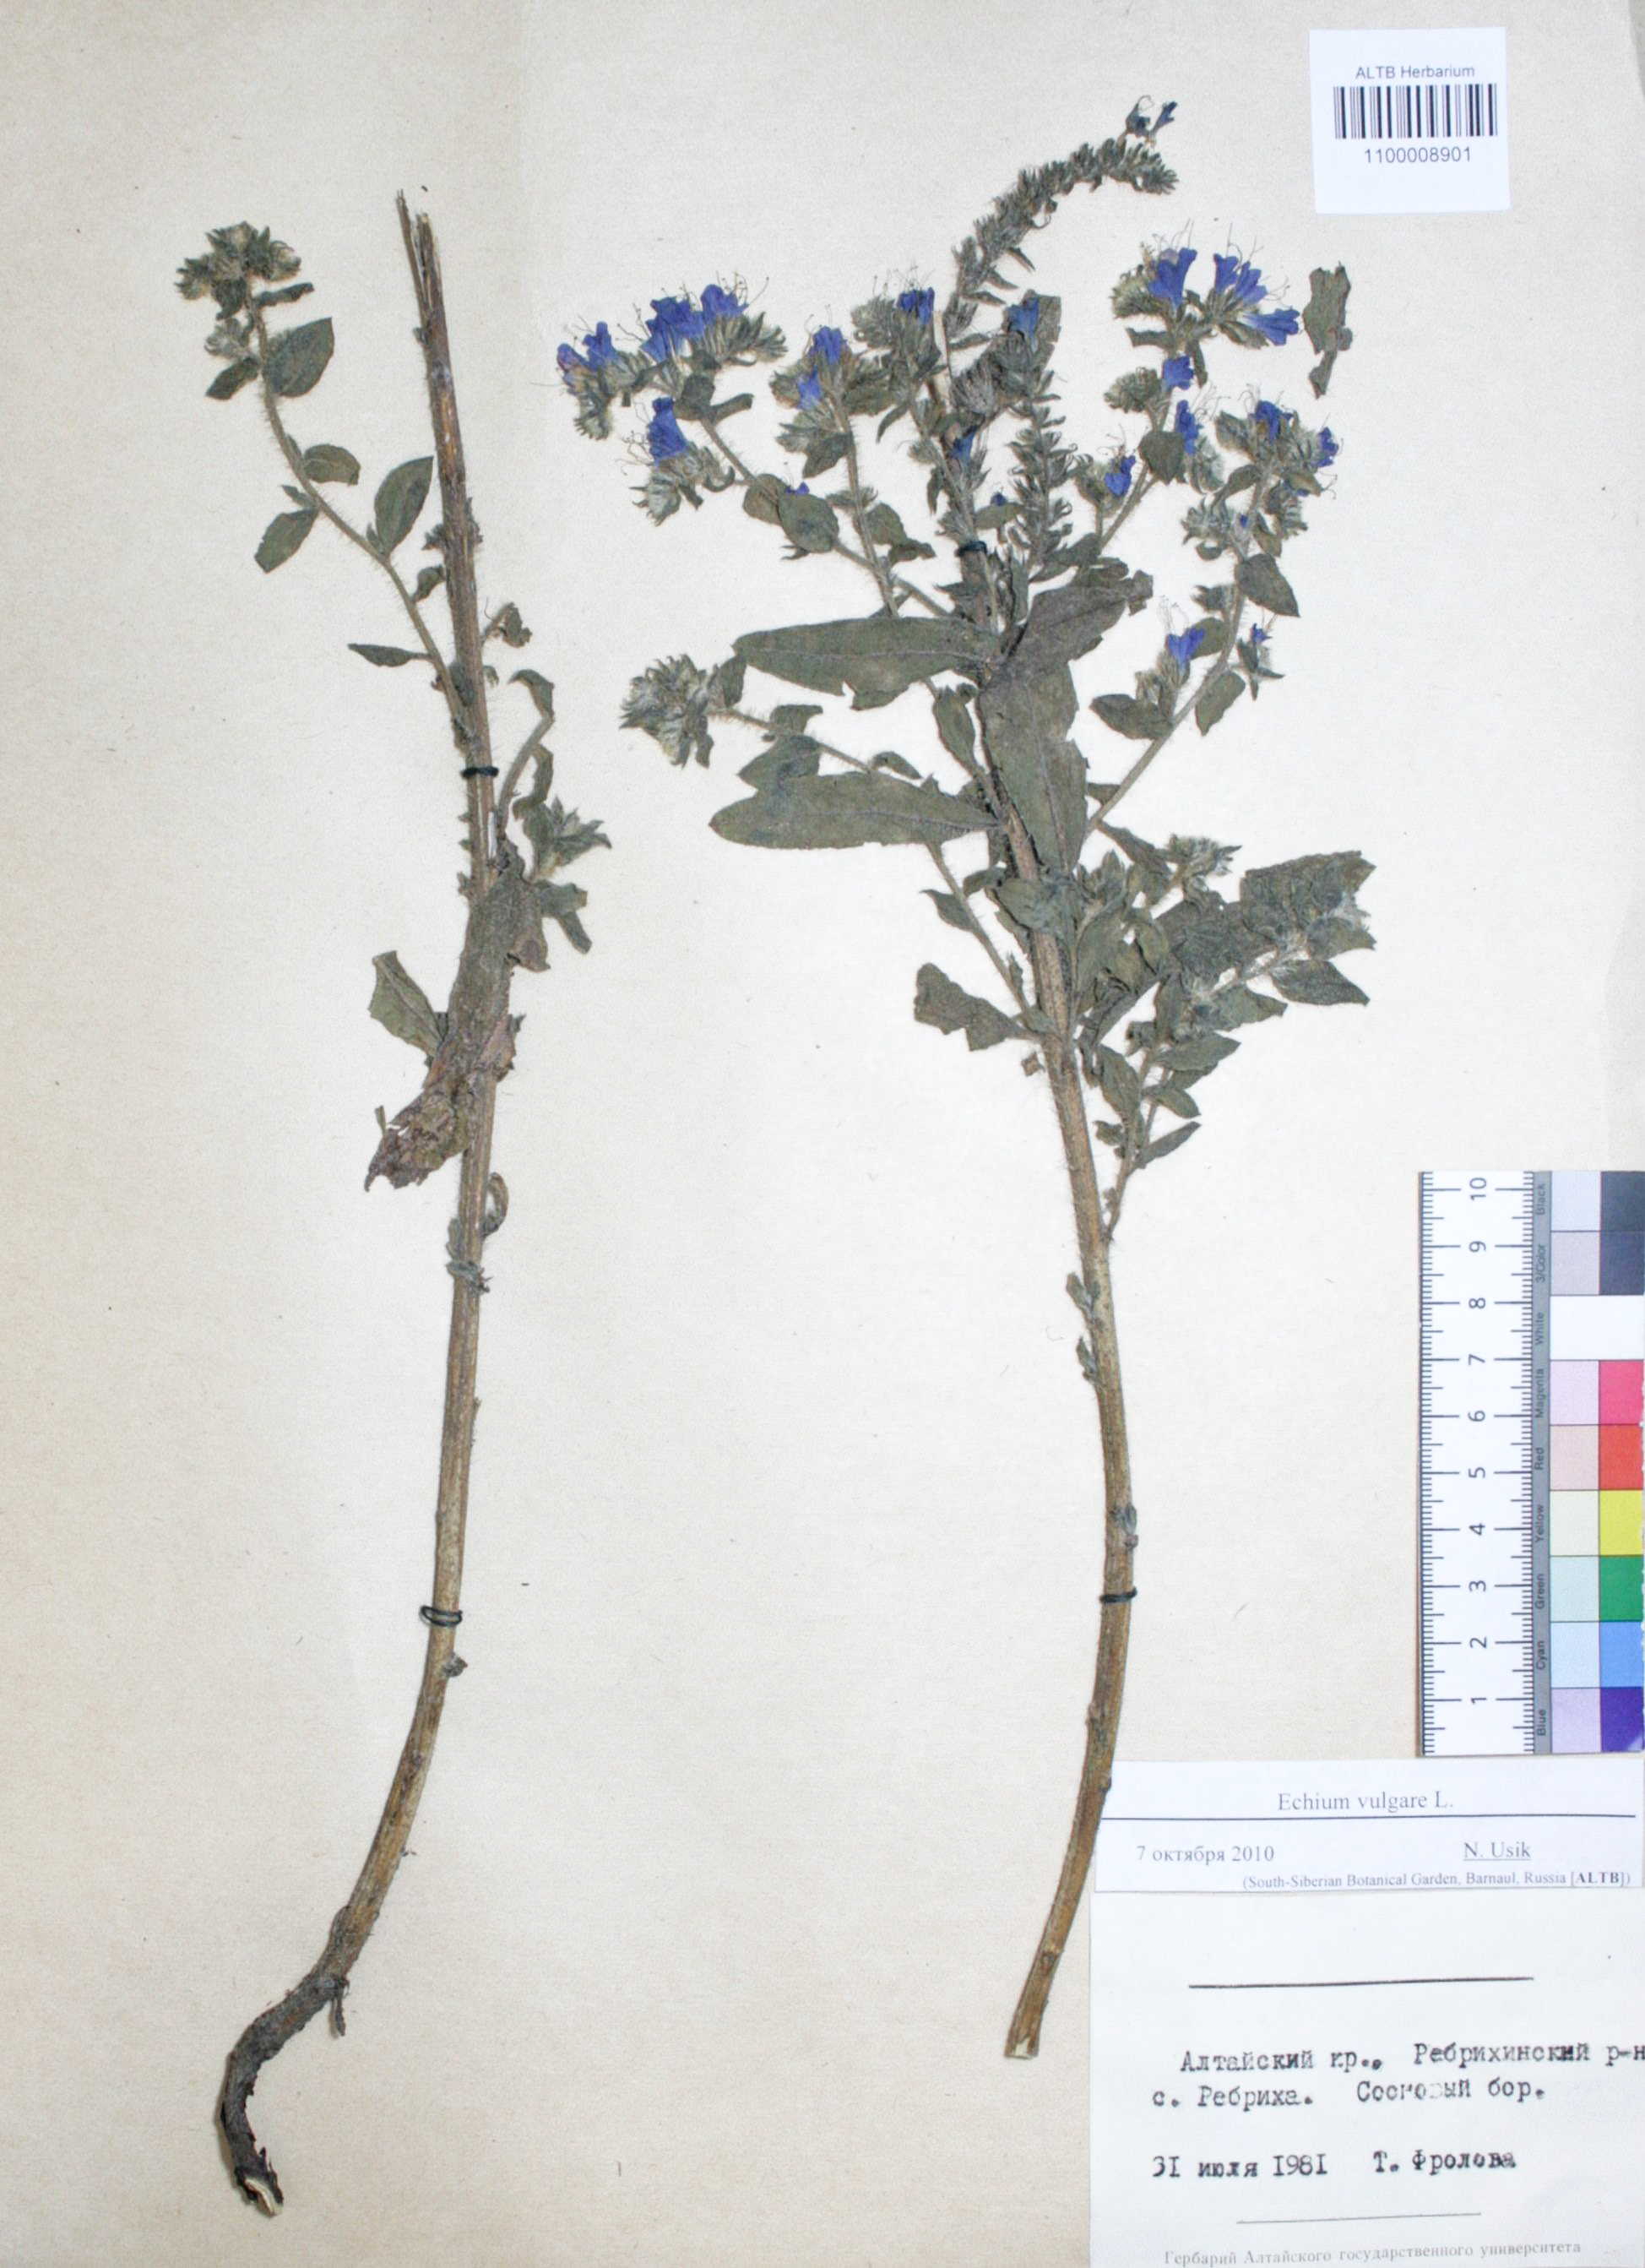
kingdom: Plantae
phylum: Tracheophyta
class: Magnoliopsida
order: Boraginales
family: Boraginaceae
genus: Echium
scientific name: Echium vulgare
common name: Common viper's bugloss
